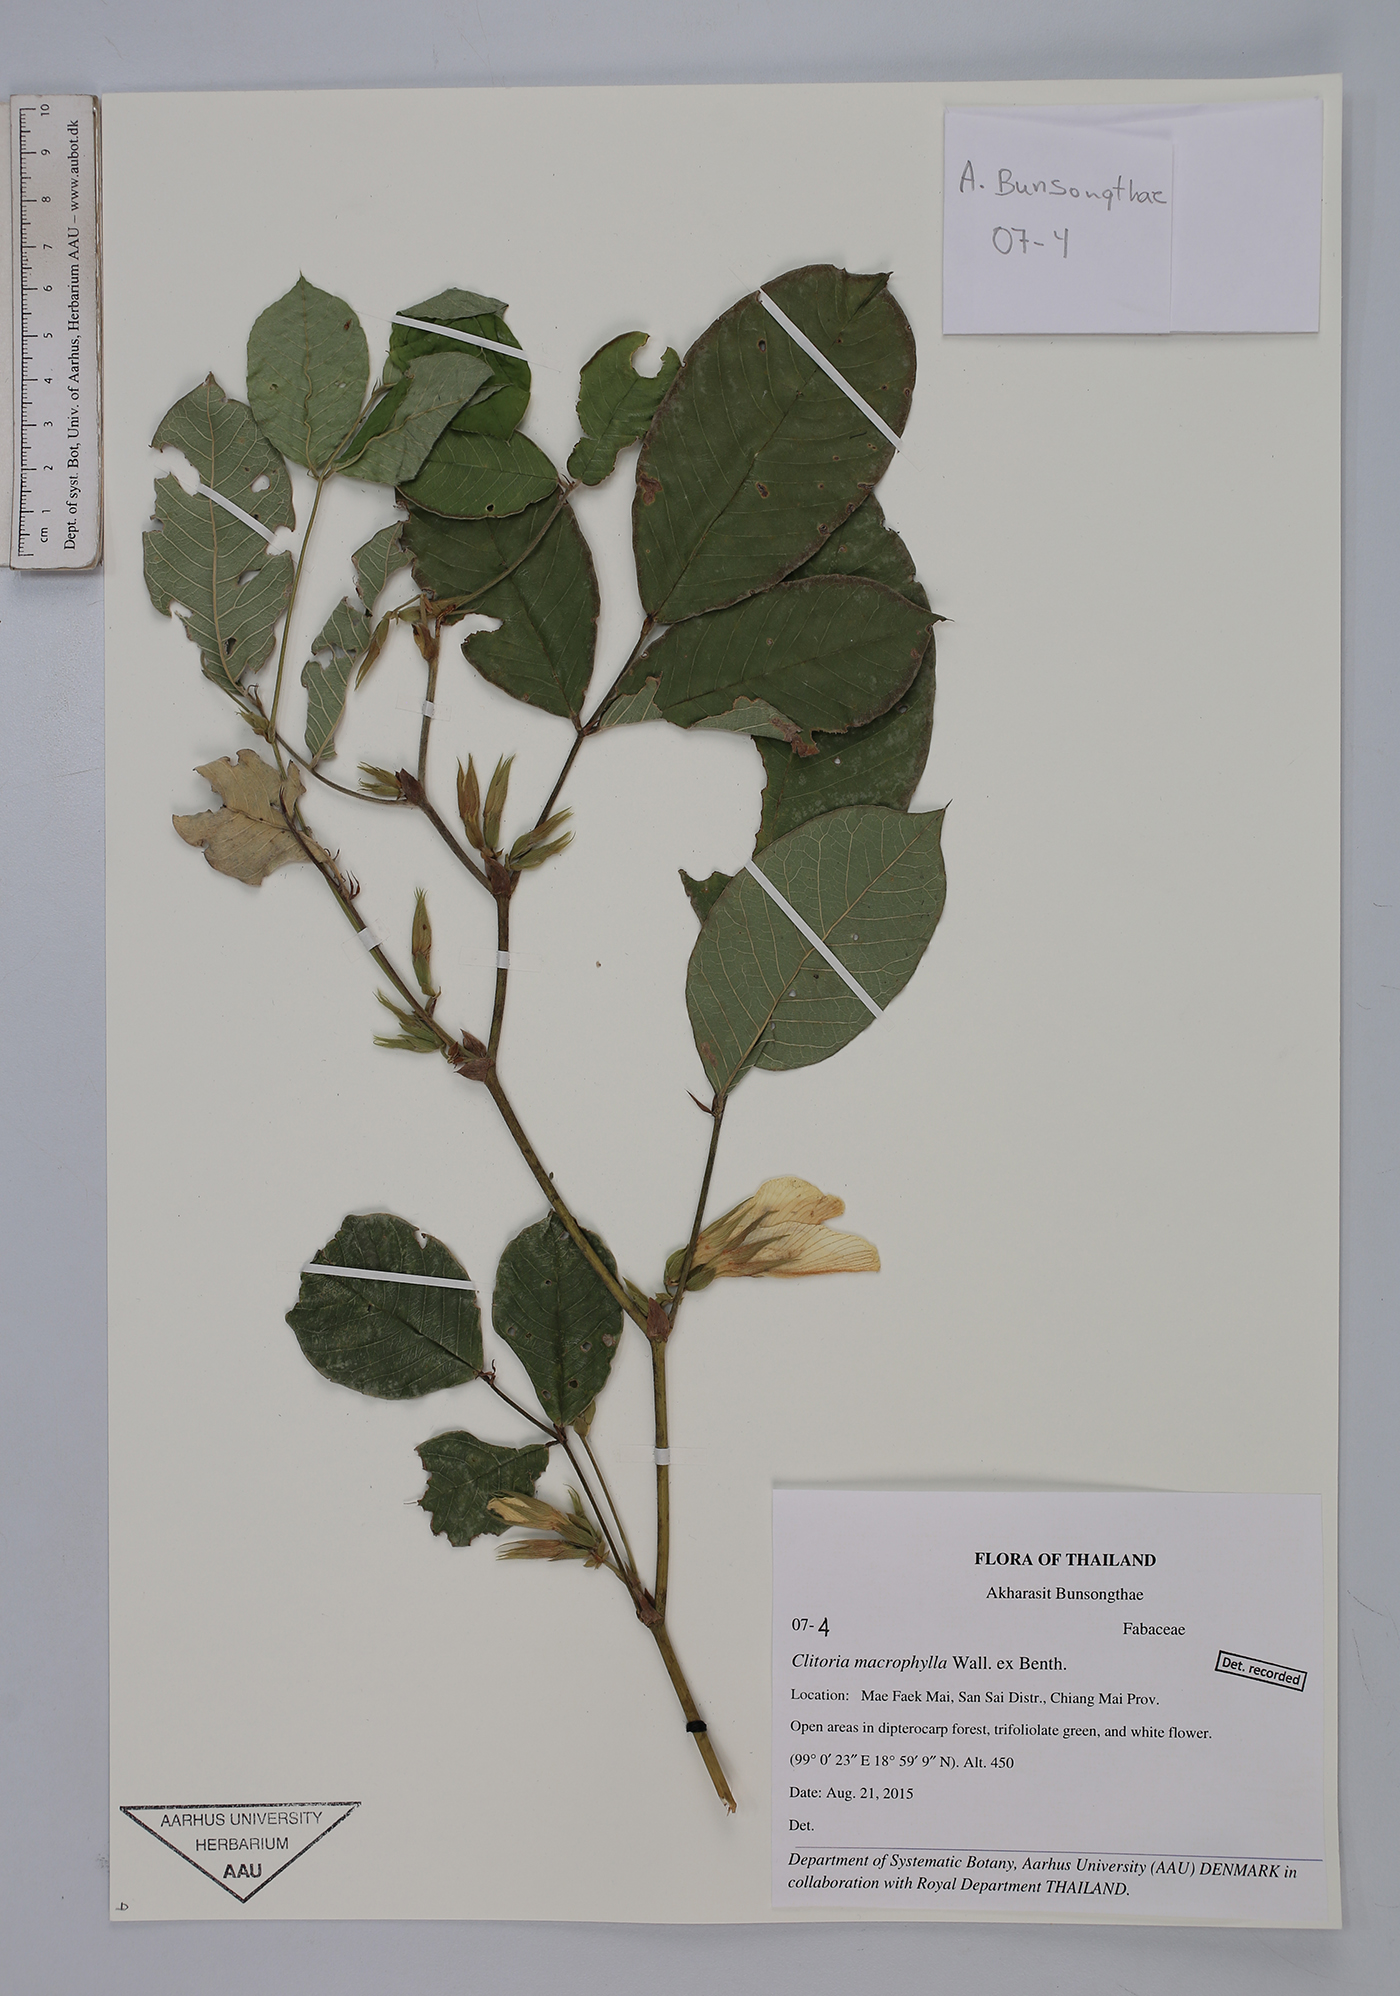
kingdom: Plantae
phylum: Tracheophyta
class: Magnoliopsida
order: Fabales
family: Fabaceae
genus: Clitoria
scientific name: Clitoria macrophylla
